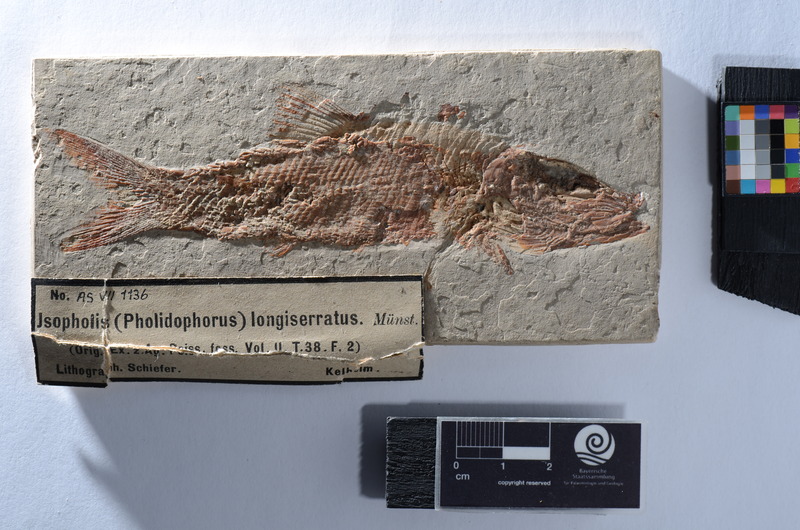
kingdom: Animalia
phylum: Chordata
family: Ophiopsiellidae
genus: Furo
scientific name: Furo longiserratus
